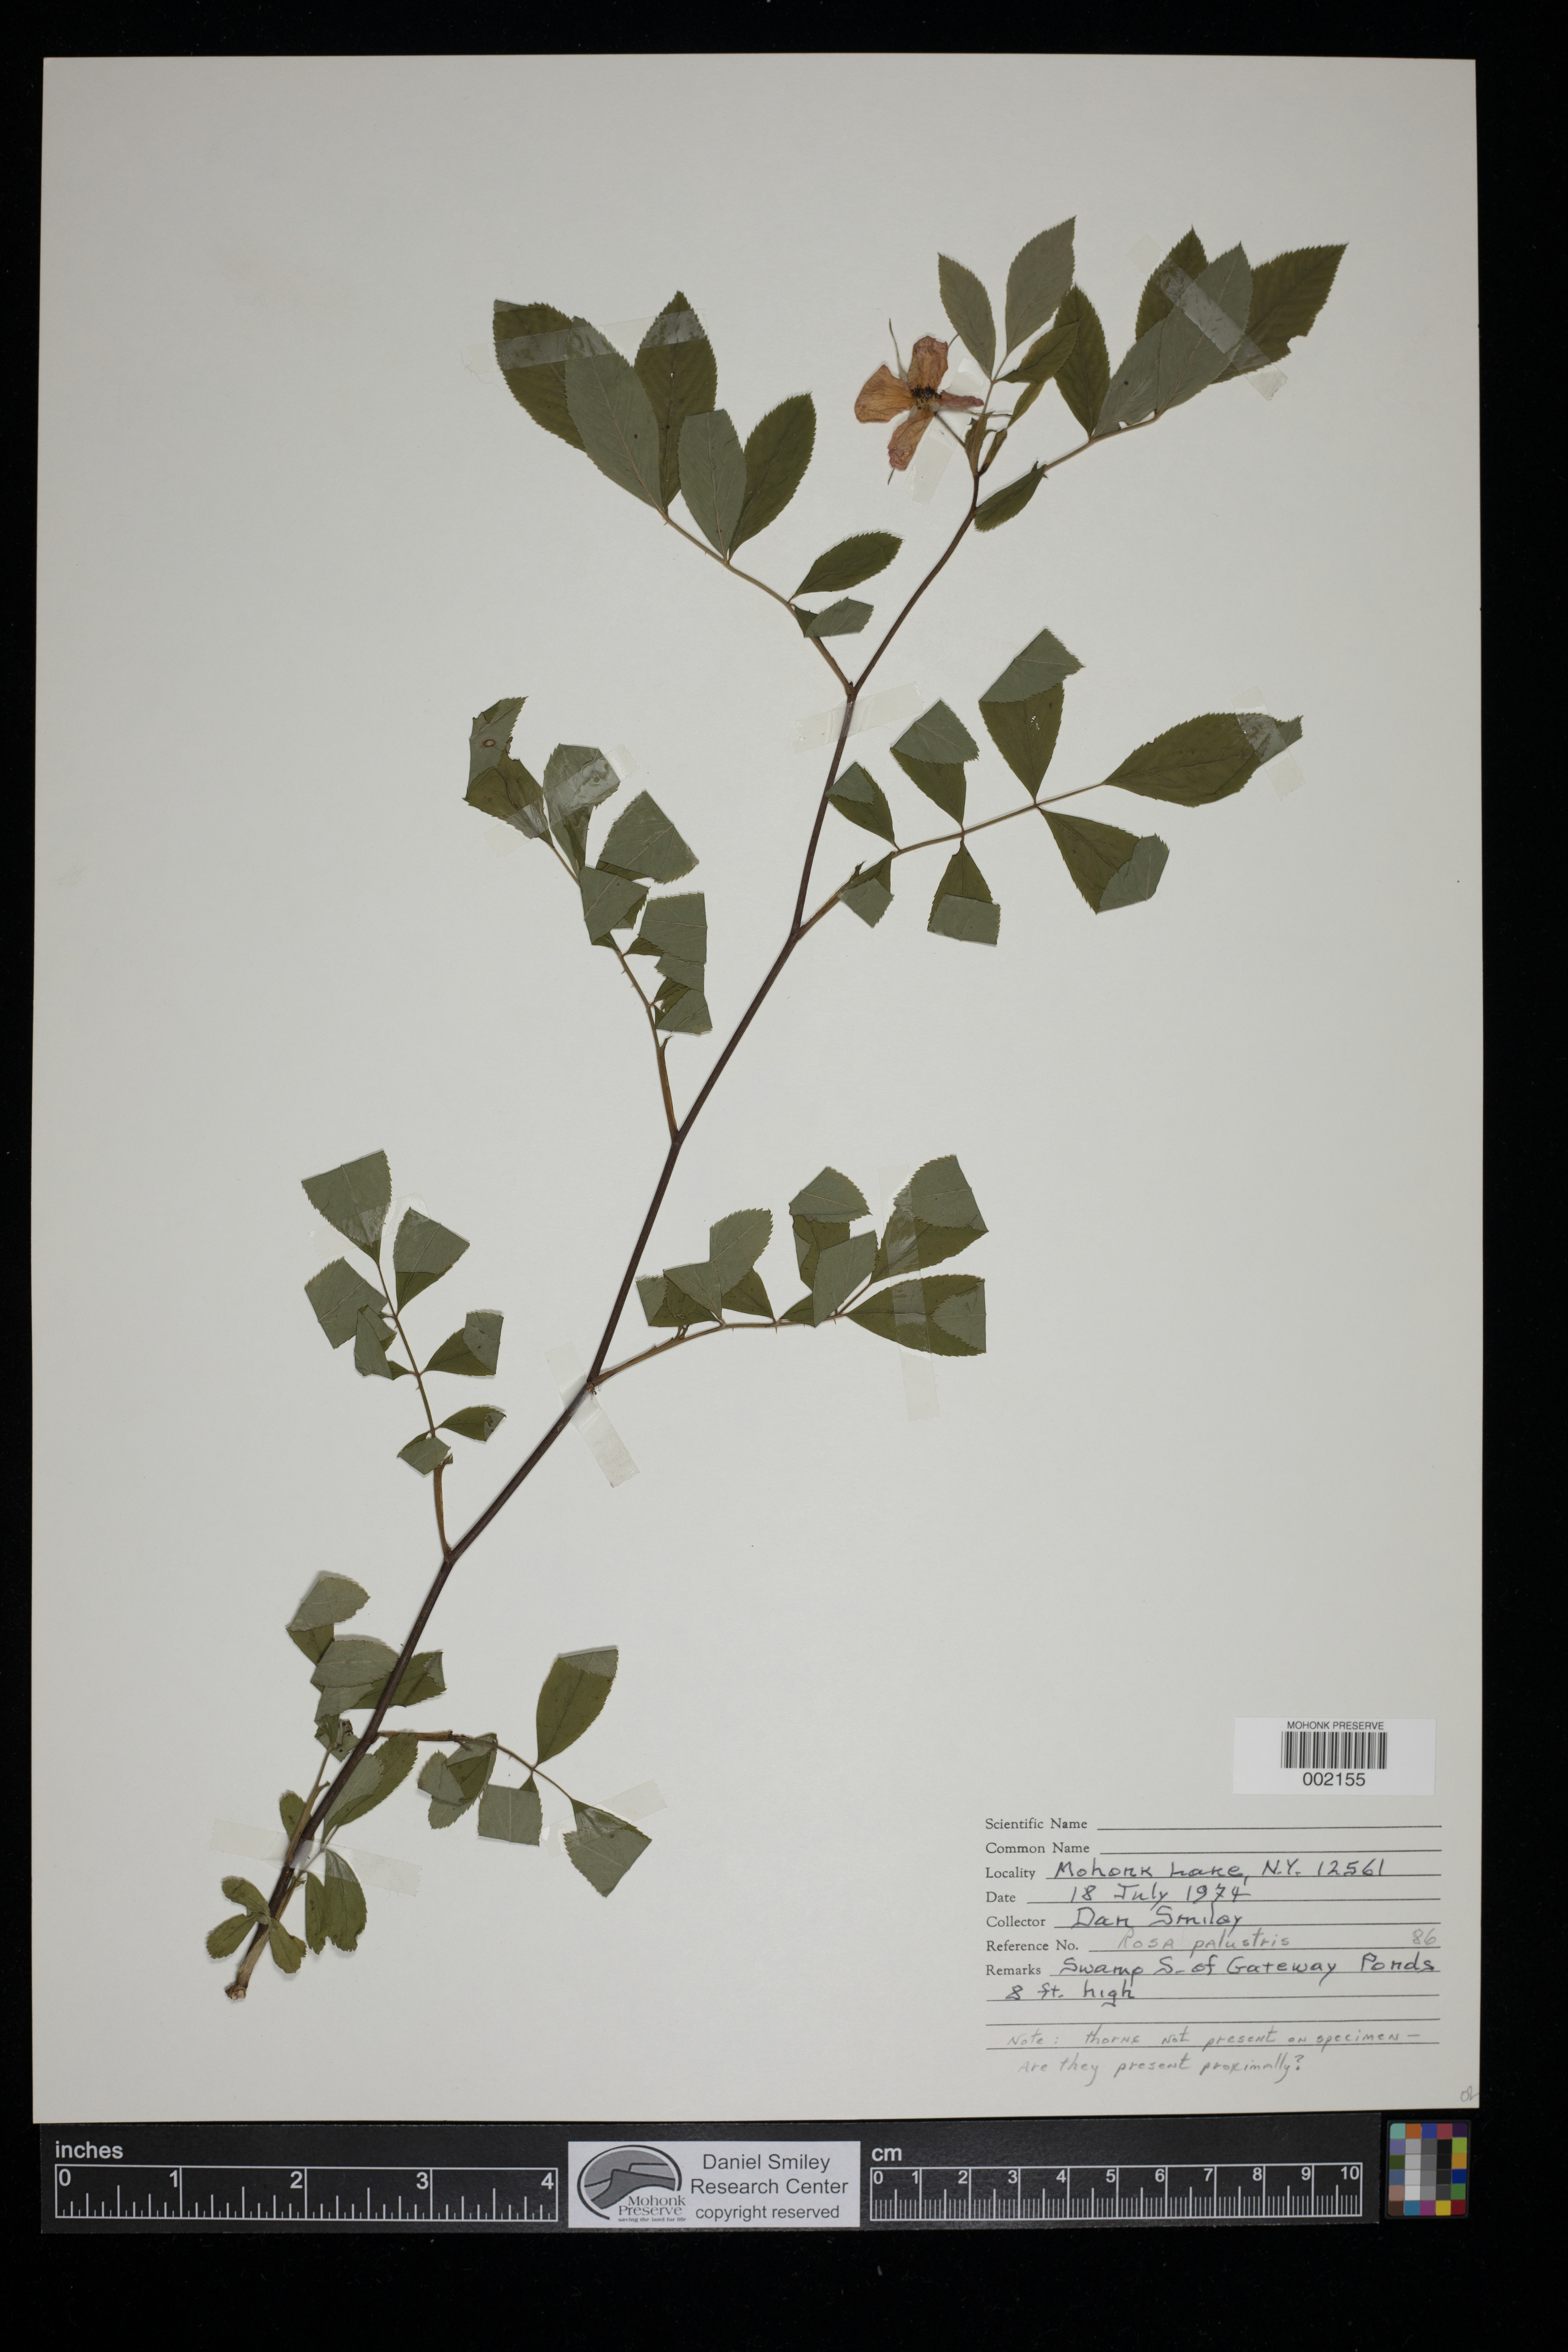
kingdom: Plantae
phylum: Tracheophyta
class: Magnoliopsida
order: Rosales
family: Rosaceae
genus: Rosa
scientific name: Rosa palustris
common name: Swamp rose
